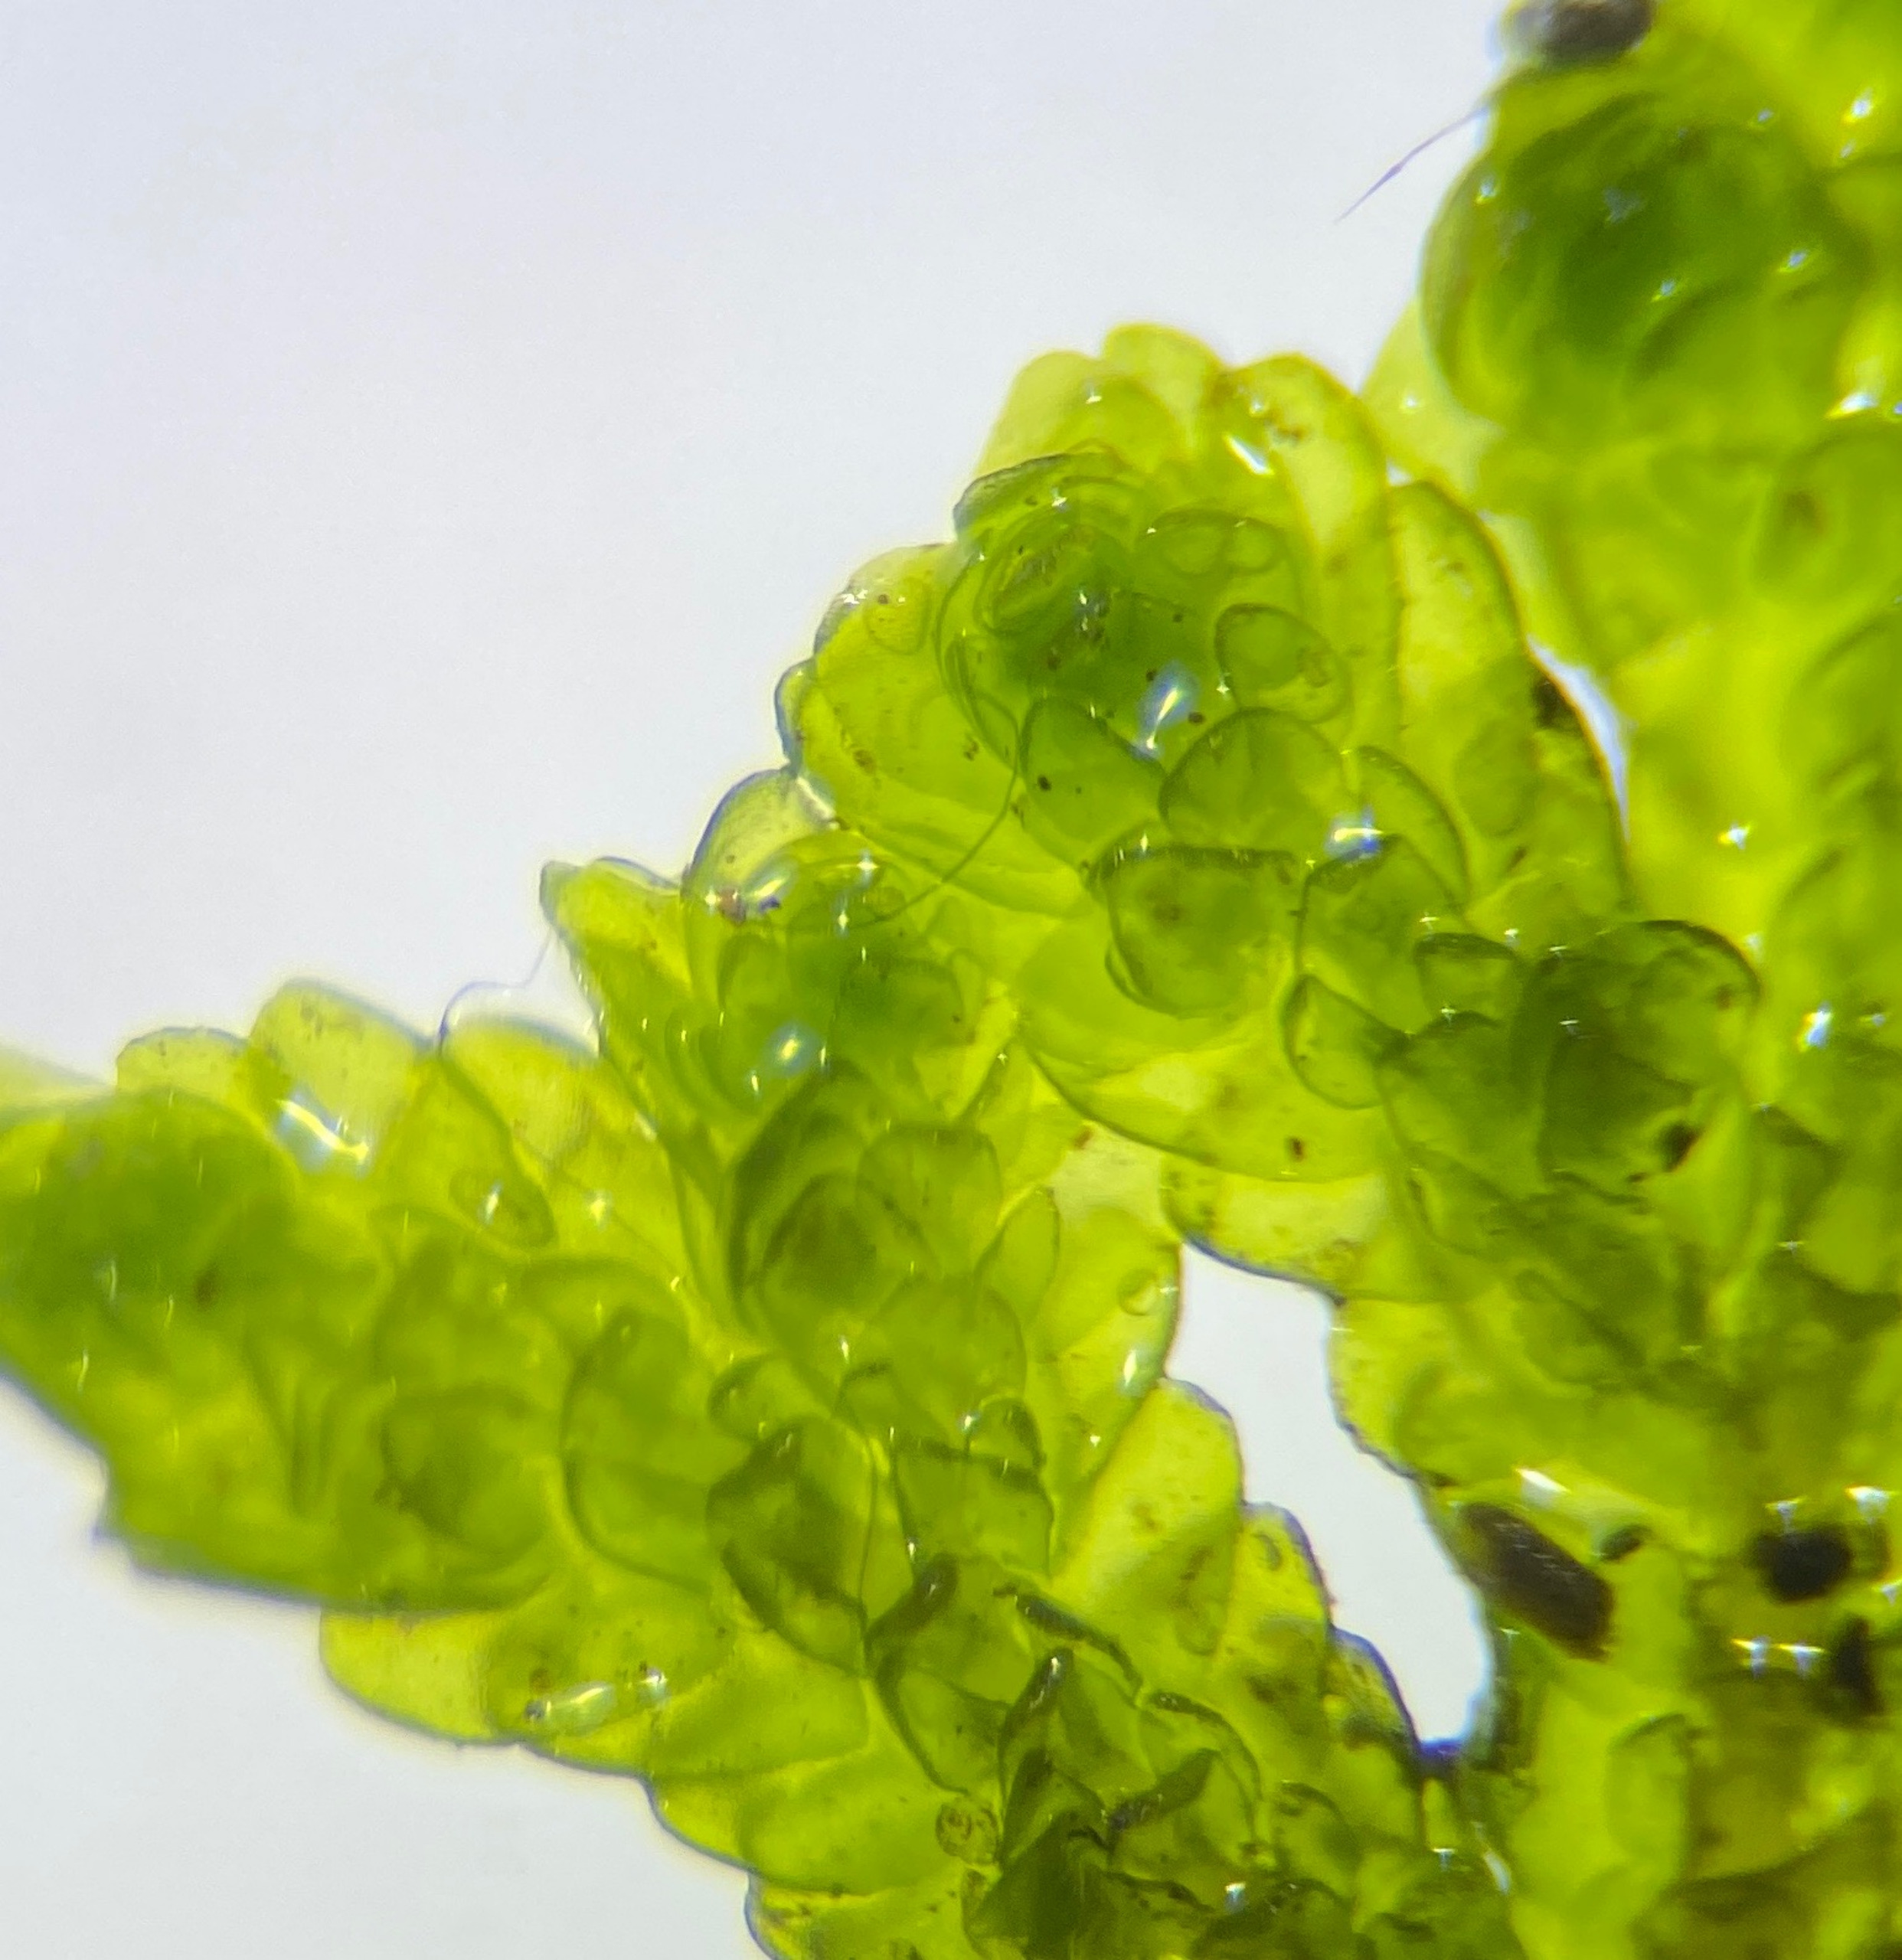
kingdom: Plantae
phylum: Marchantiophyta
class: Jungermanniopsida
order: Porellales
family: Porellaceae
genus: Porella
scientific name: Porella platyphylla
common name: Almindelig skælryg
